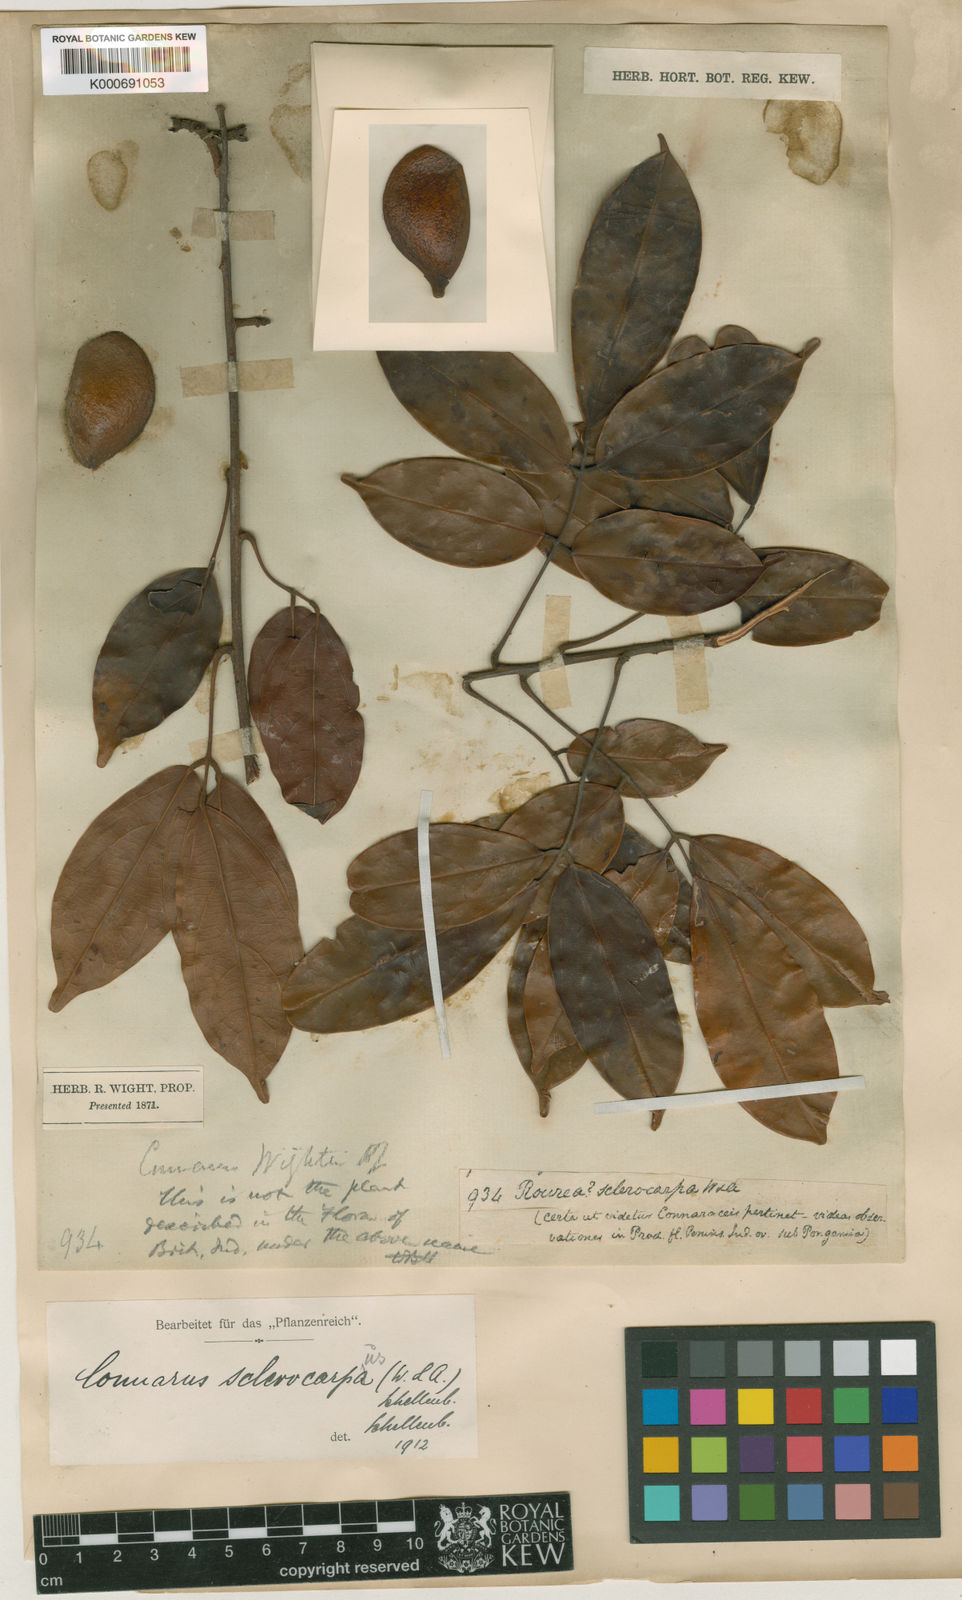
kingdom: Plantae
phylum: Tracheophyta
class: Magnoliopsida
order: Oxalidales
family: Connaraceae
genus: Connarus
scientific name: Connarus sclerocarpus
